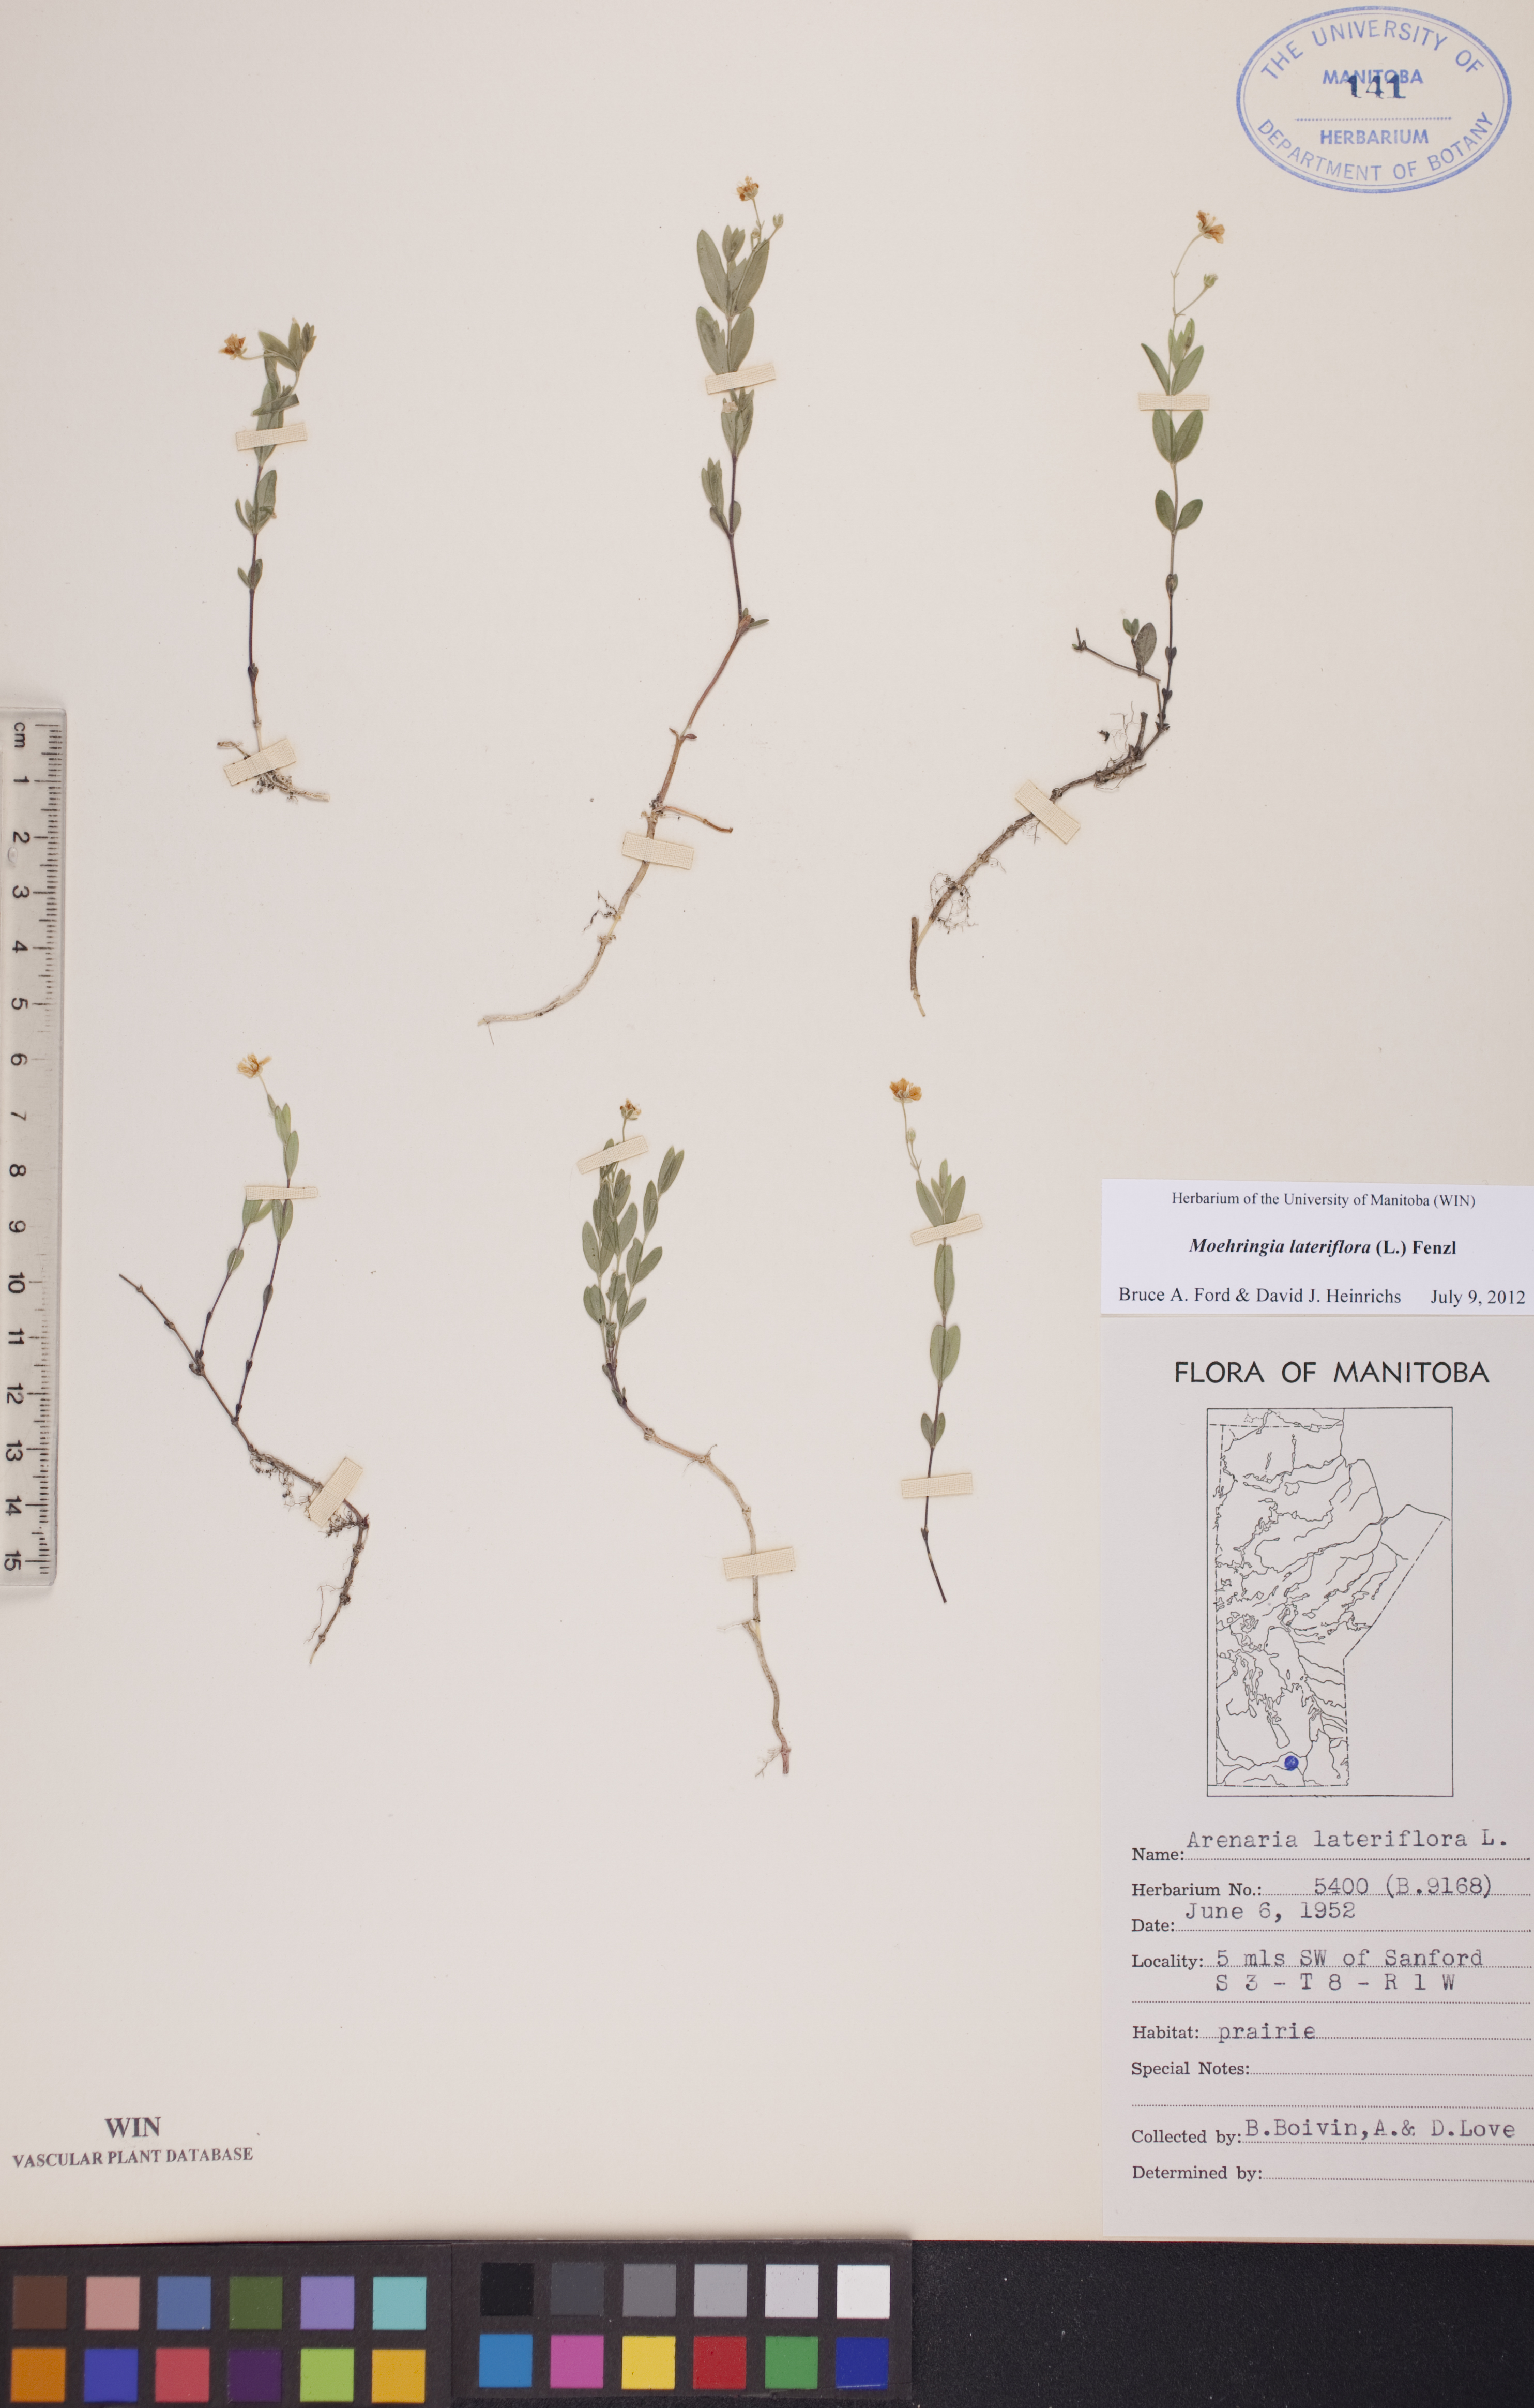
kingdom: Plantae
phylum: Tracheophyta
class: Magnoliopsida
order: Caryophyllales
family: Caryophyllaceae
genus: Moehringia
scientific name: Moehringia lateriflora
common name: Blunt-leaved sandwort
